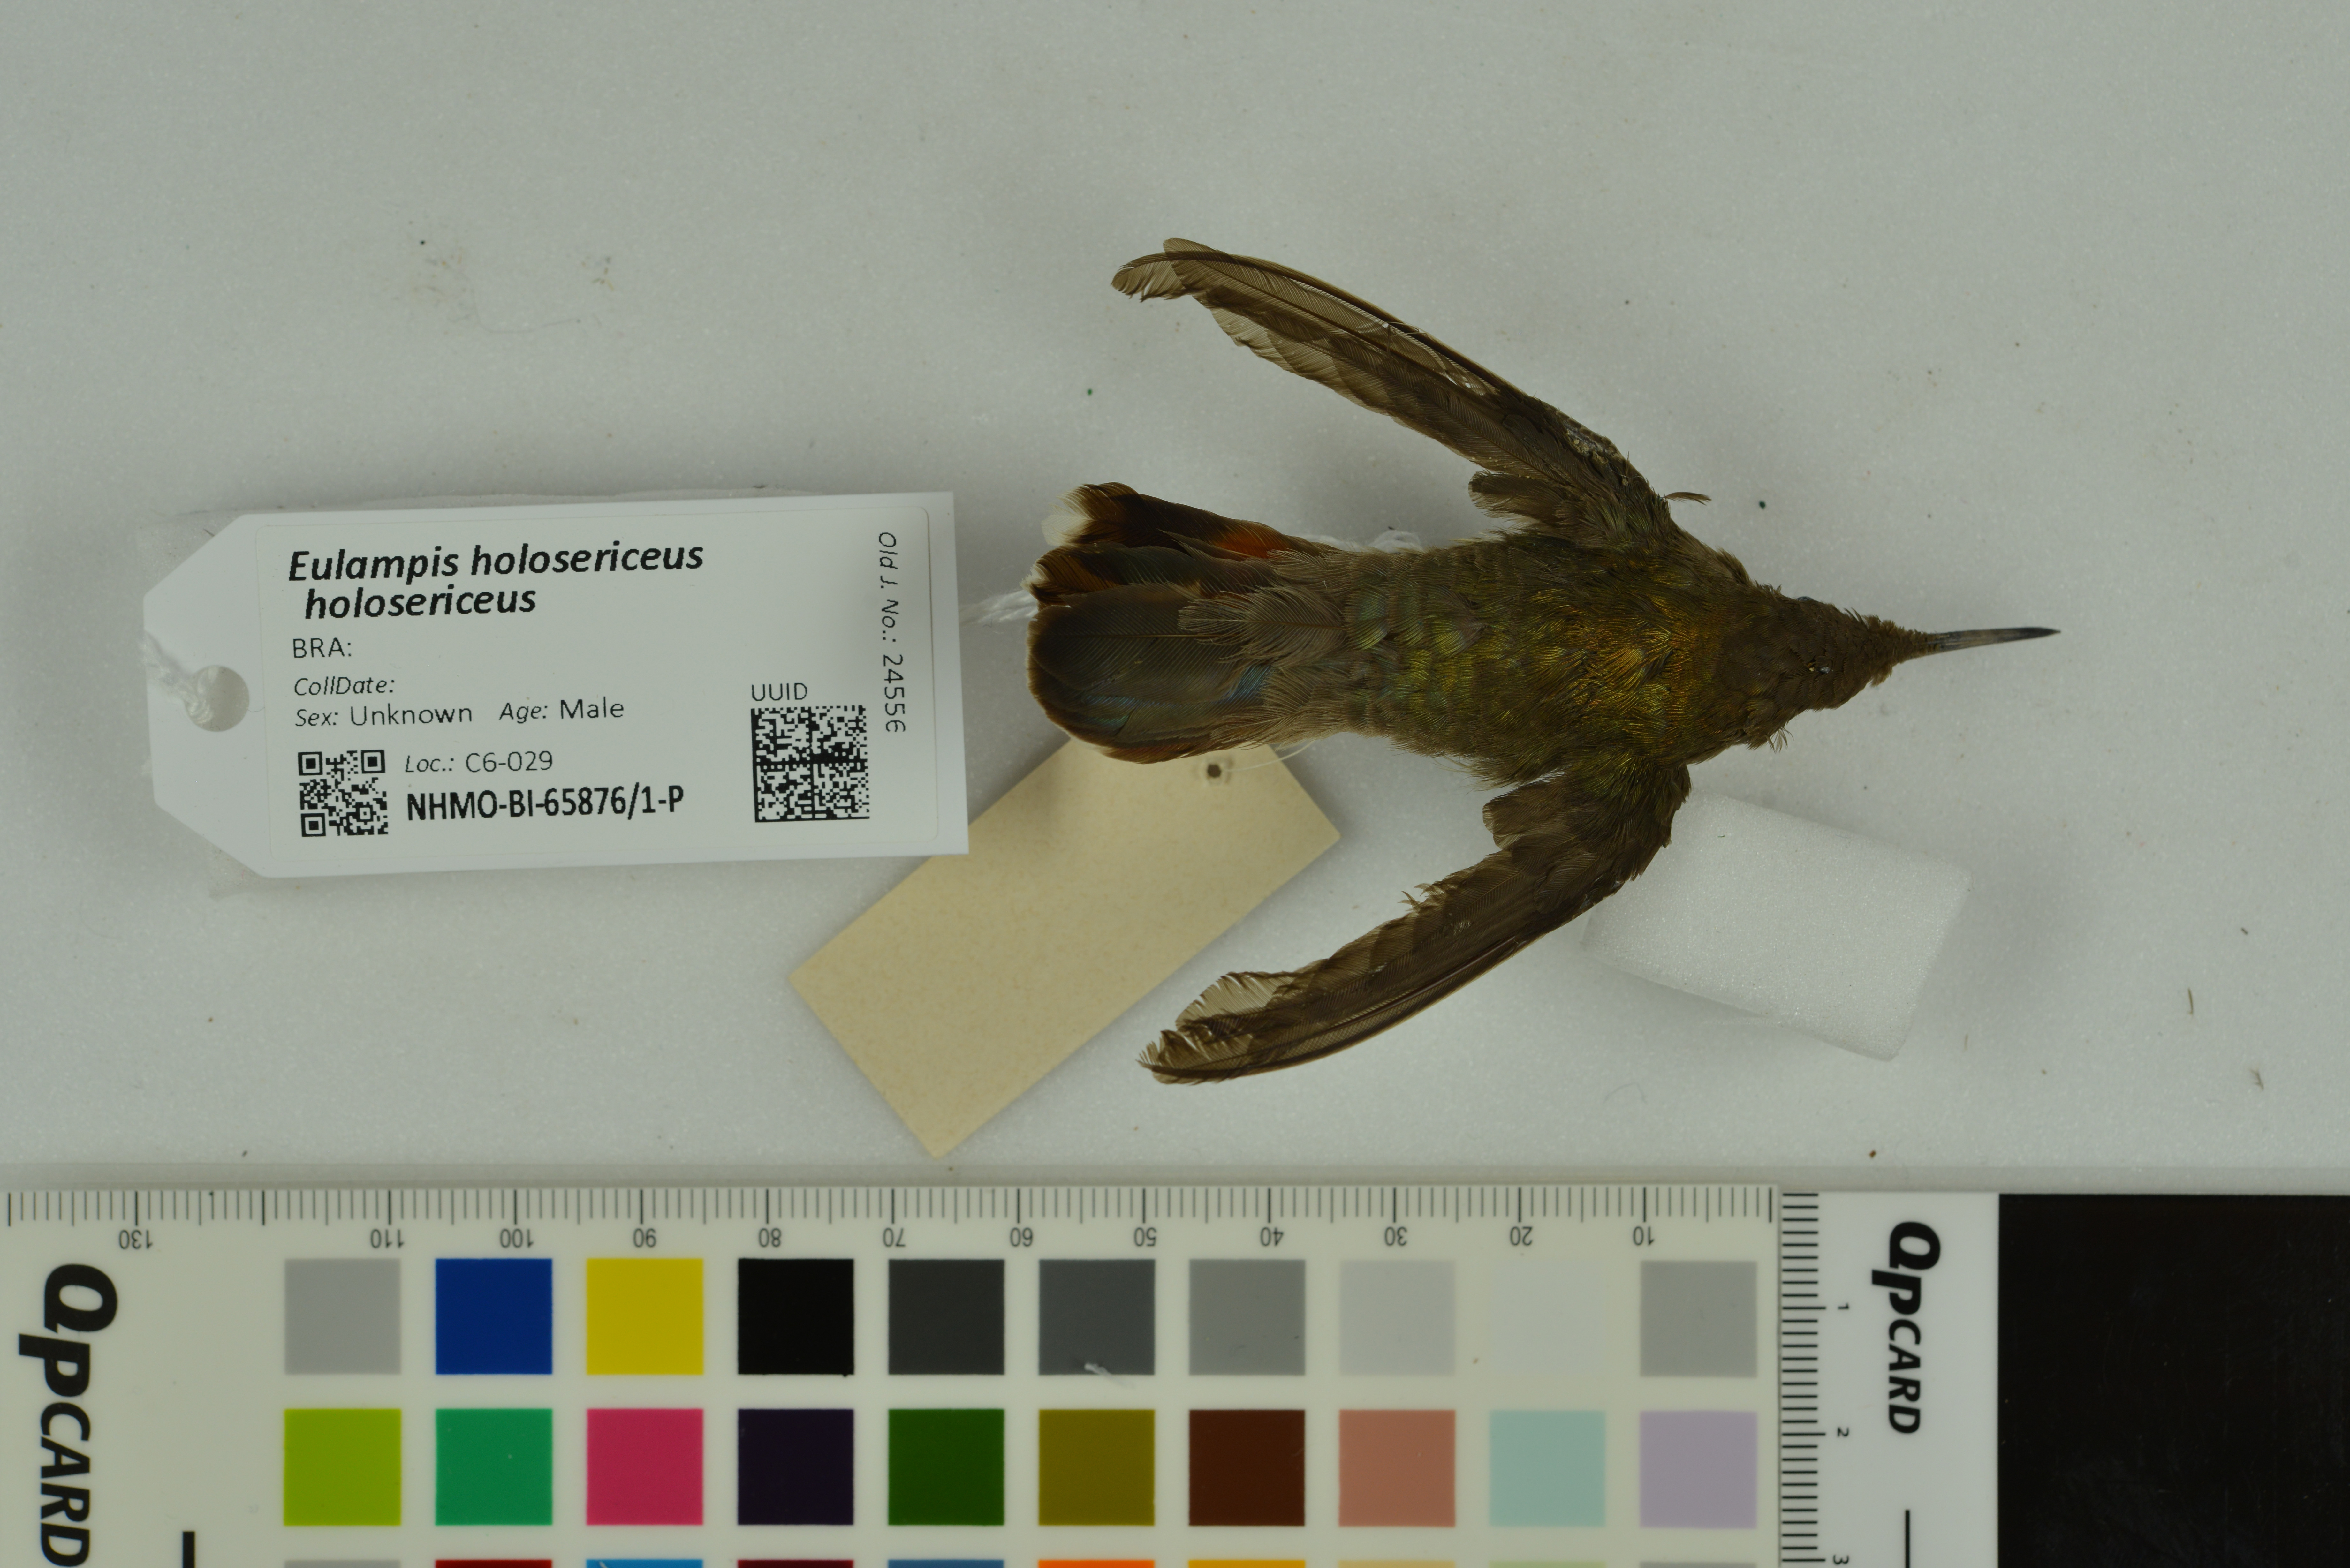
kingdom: Animalia
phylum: Chordata
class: Aves
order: Apodiformes
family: Trochilidae
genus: Eulampis
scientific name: Eulampis holosericeus
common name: Green-throated carib
